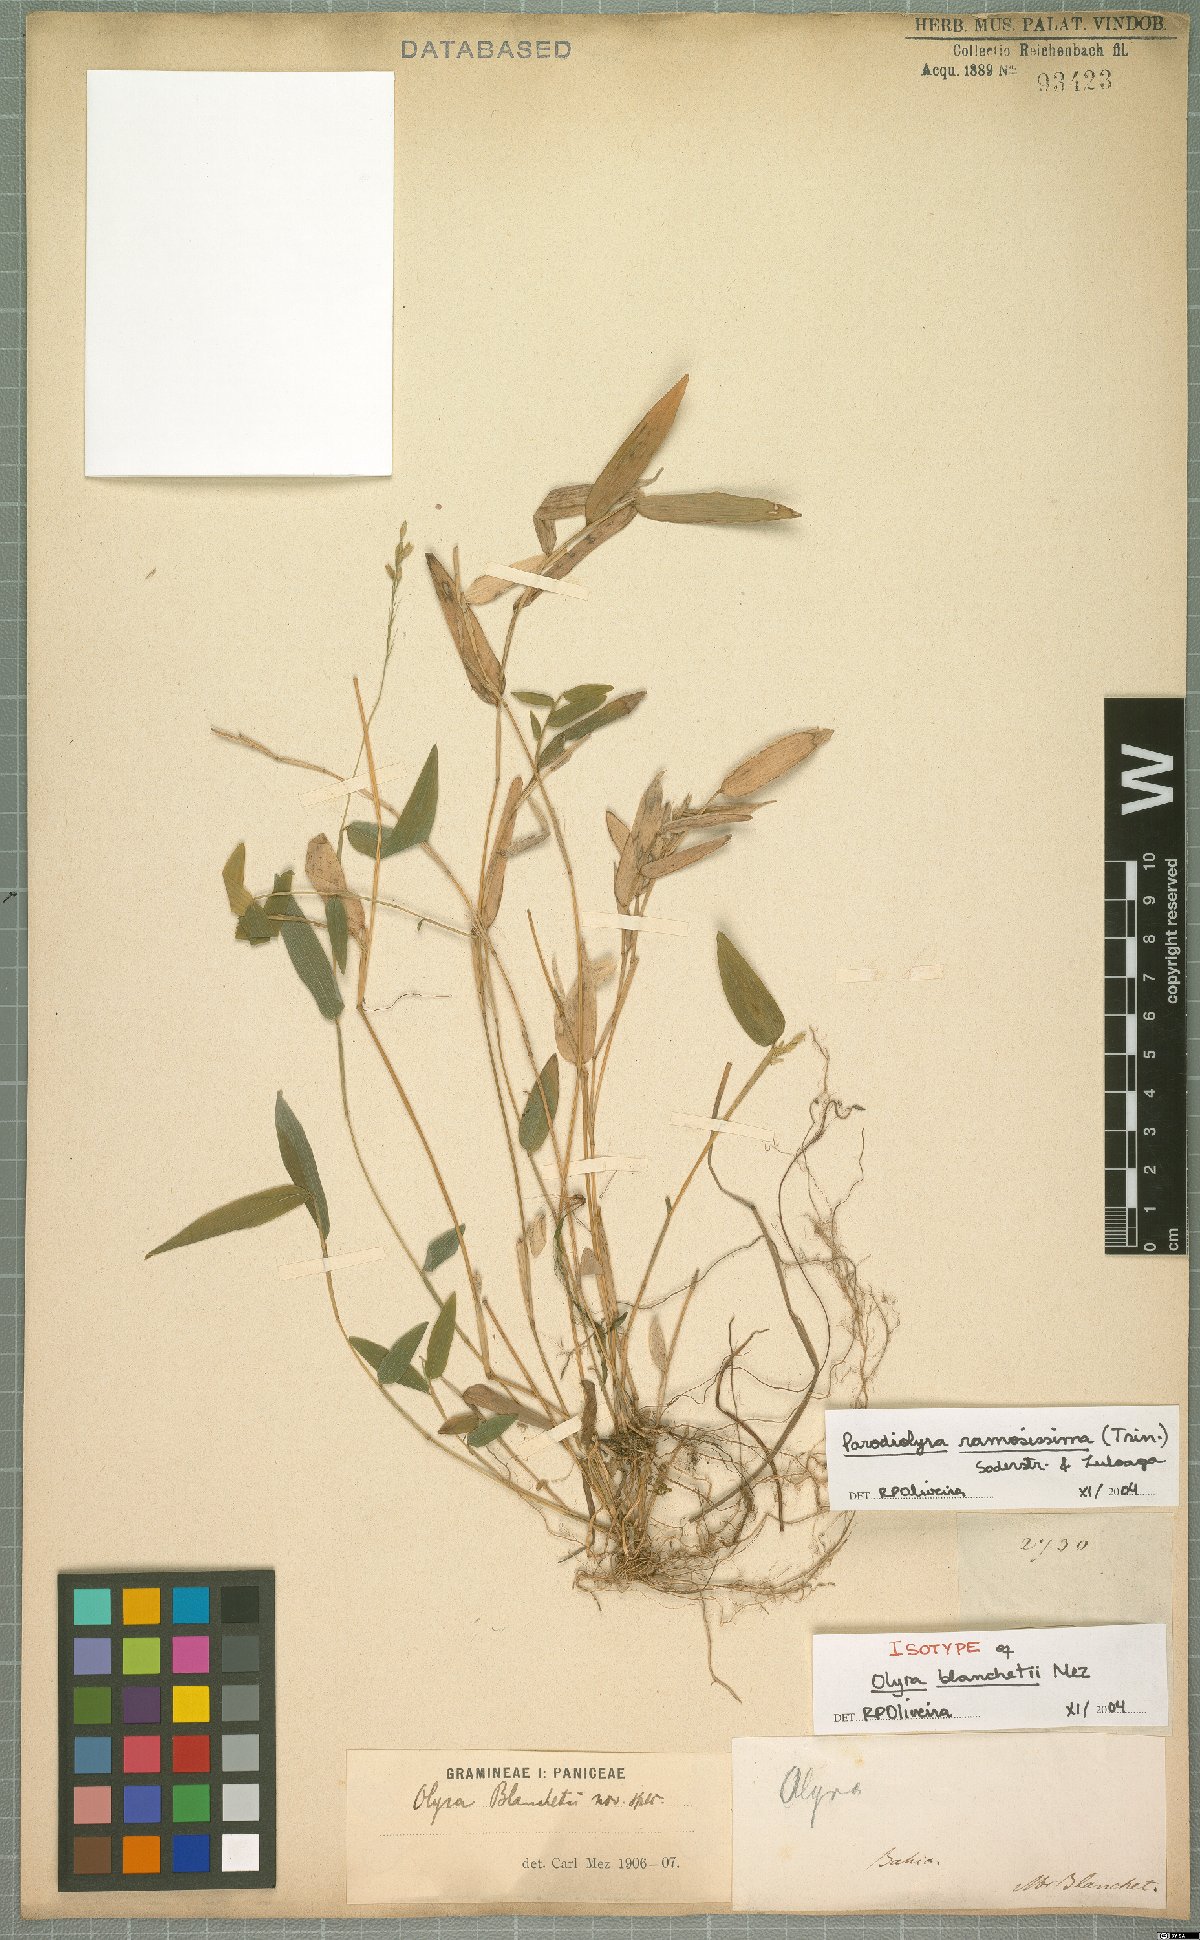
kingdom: Plantae
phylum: Tracheophyta
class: Liliopsida
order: Poales
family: Poaceae
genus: Parodiolyra
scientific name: Parodiolyra ramosissima
